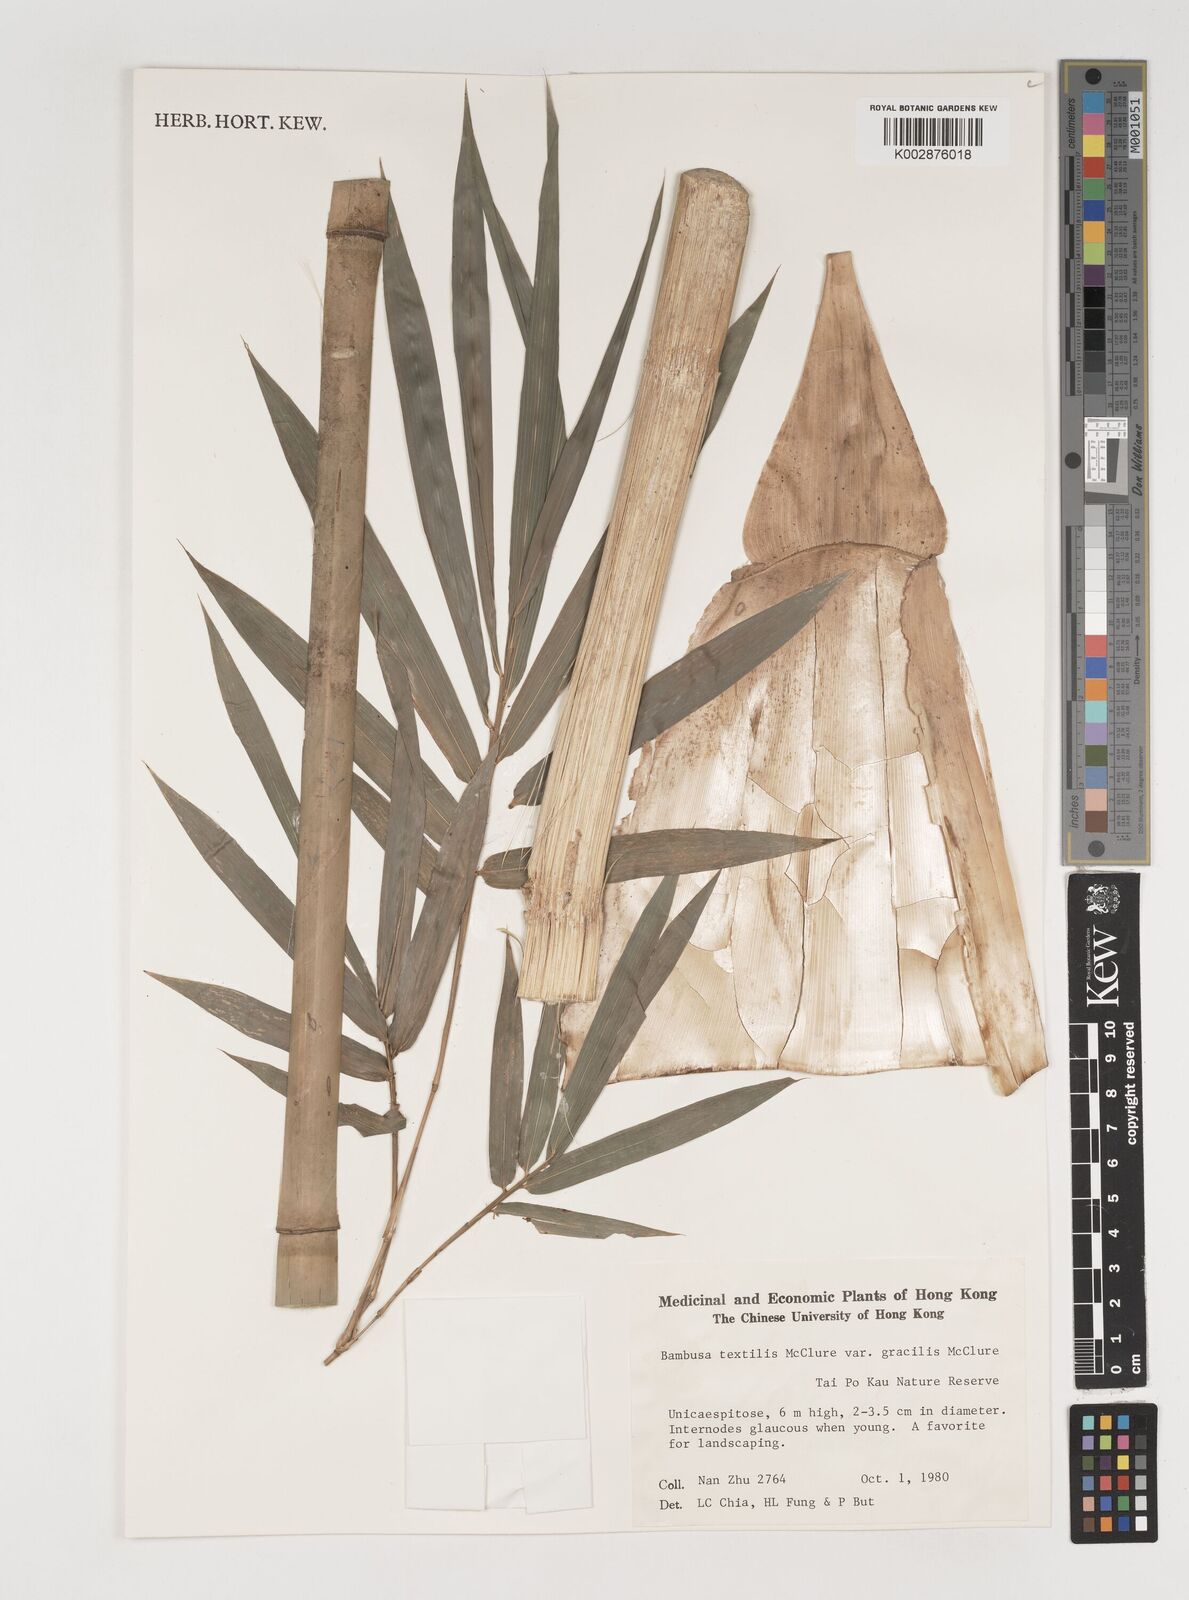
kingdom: Plantae
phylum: Tracheophyta
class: Liliopsida
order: Poales
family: Poaceae
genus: Bambusa
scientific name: Bambusa
